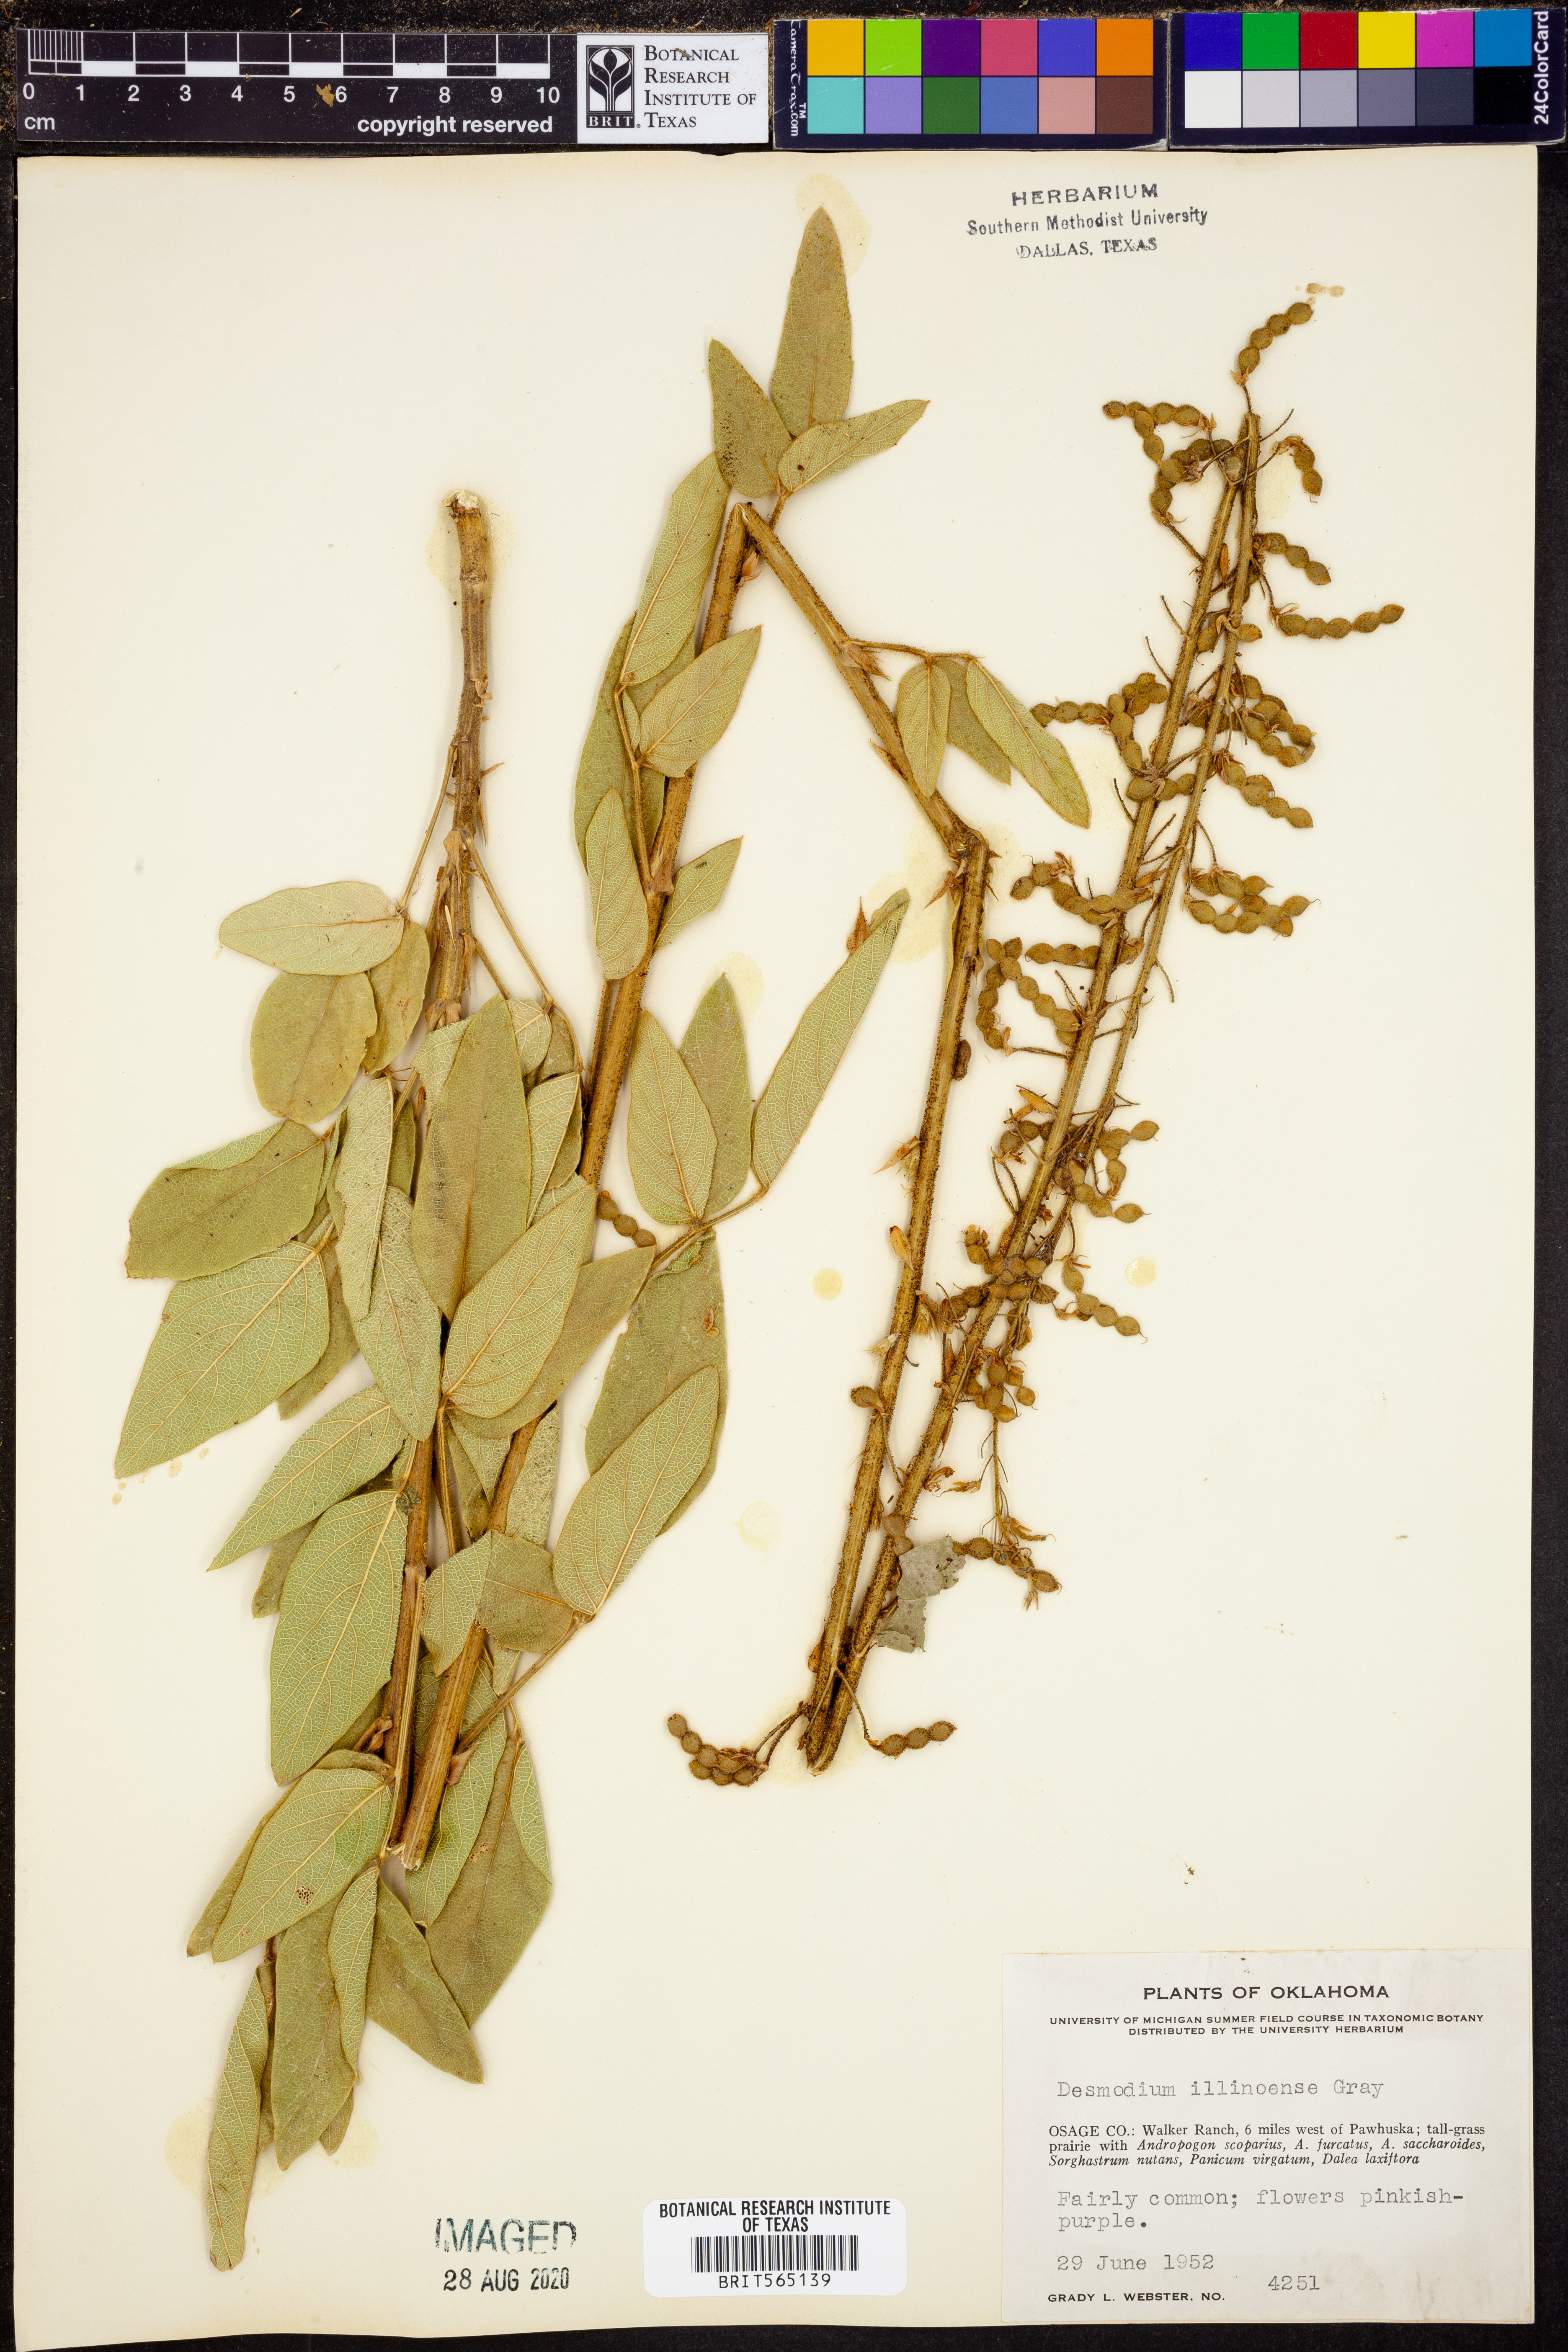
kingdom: Plantae
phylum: Tracheophyta
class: Magnoliopsida
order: Fabales
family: Fabaceae
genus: Desmodium
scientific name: Desmodium illinoense
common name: Illinois tick-clover
